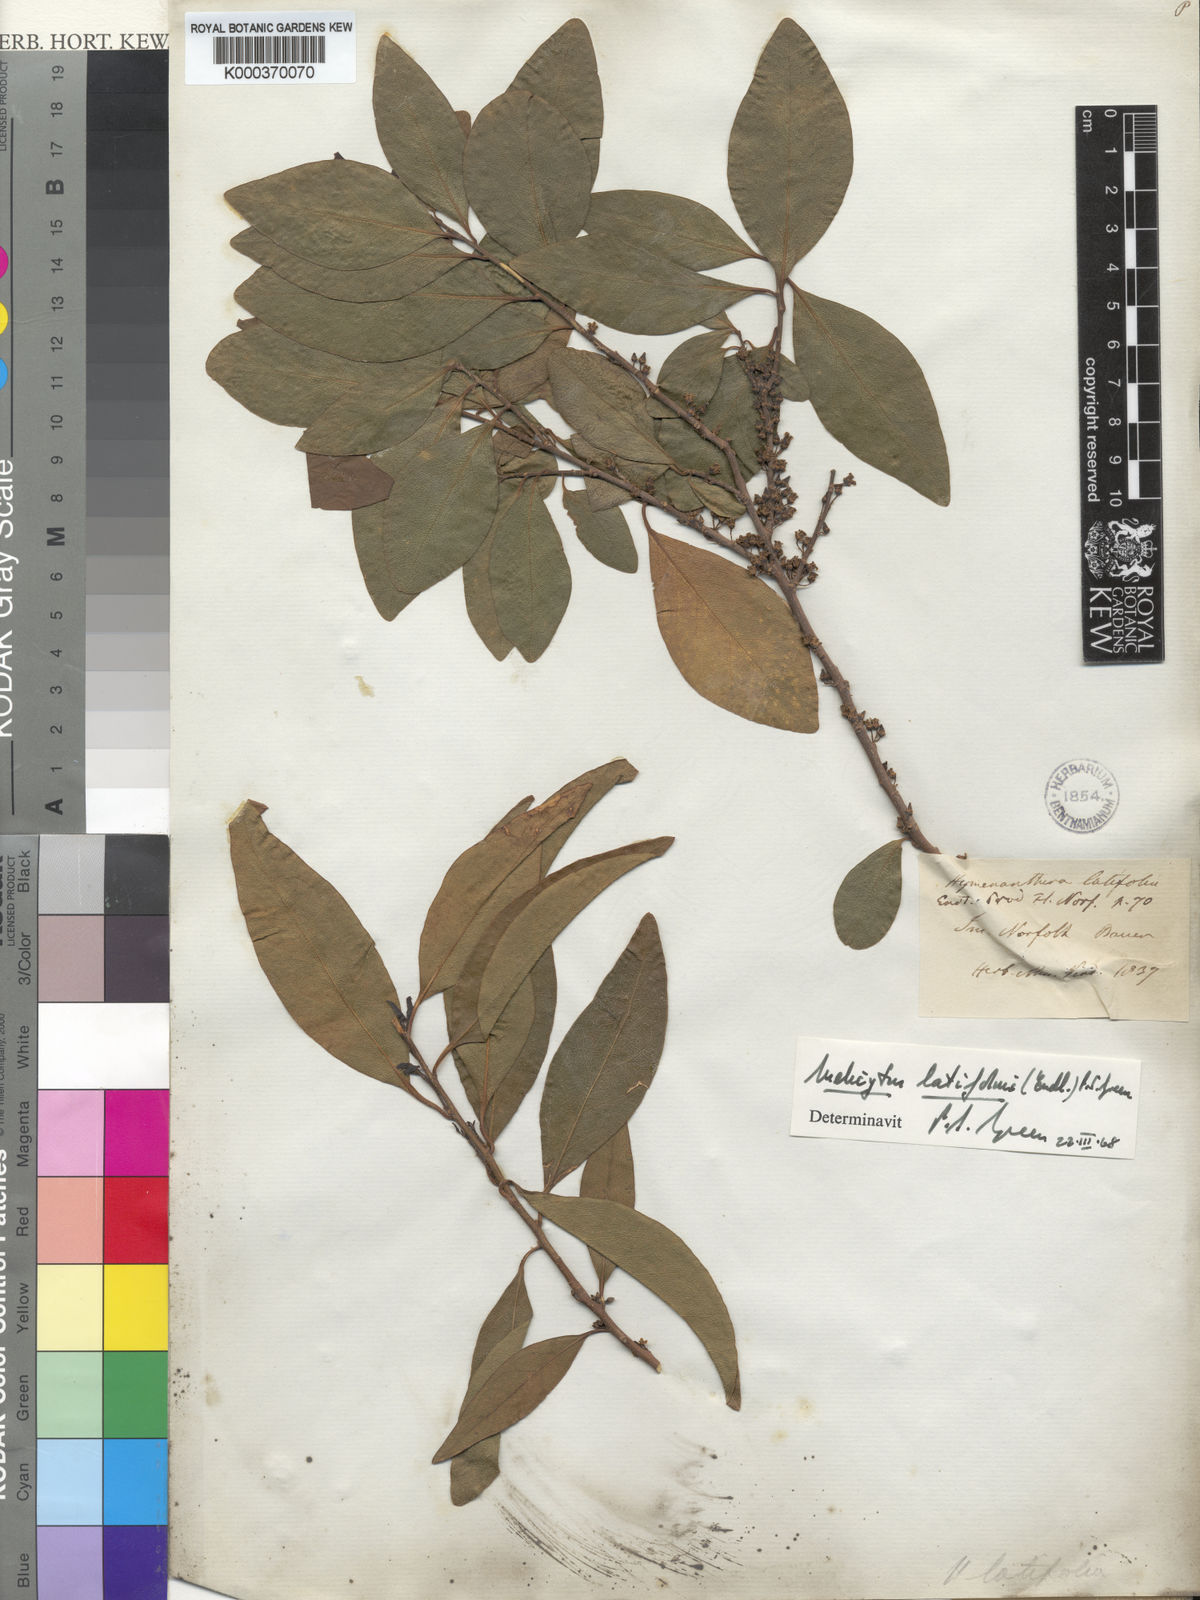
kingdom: Plantae
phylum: Tracheophyta
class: Magnoliopsida
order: Malpighiales
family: Violaceae
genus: Melicytus
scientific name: Melicytus latifolius
